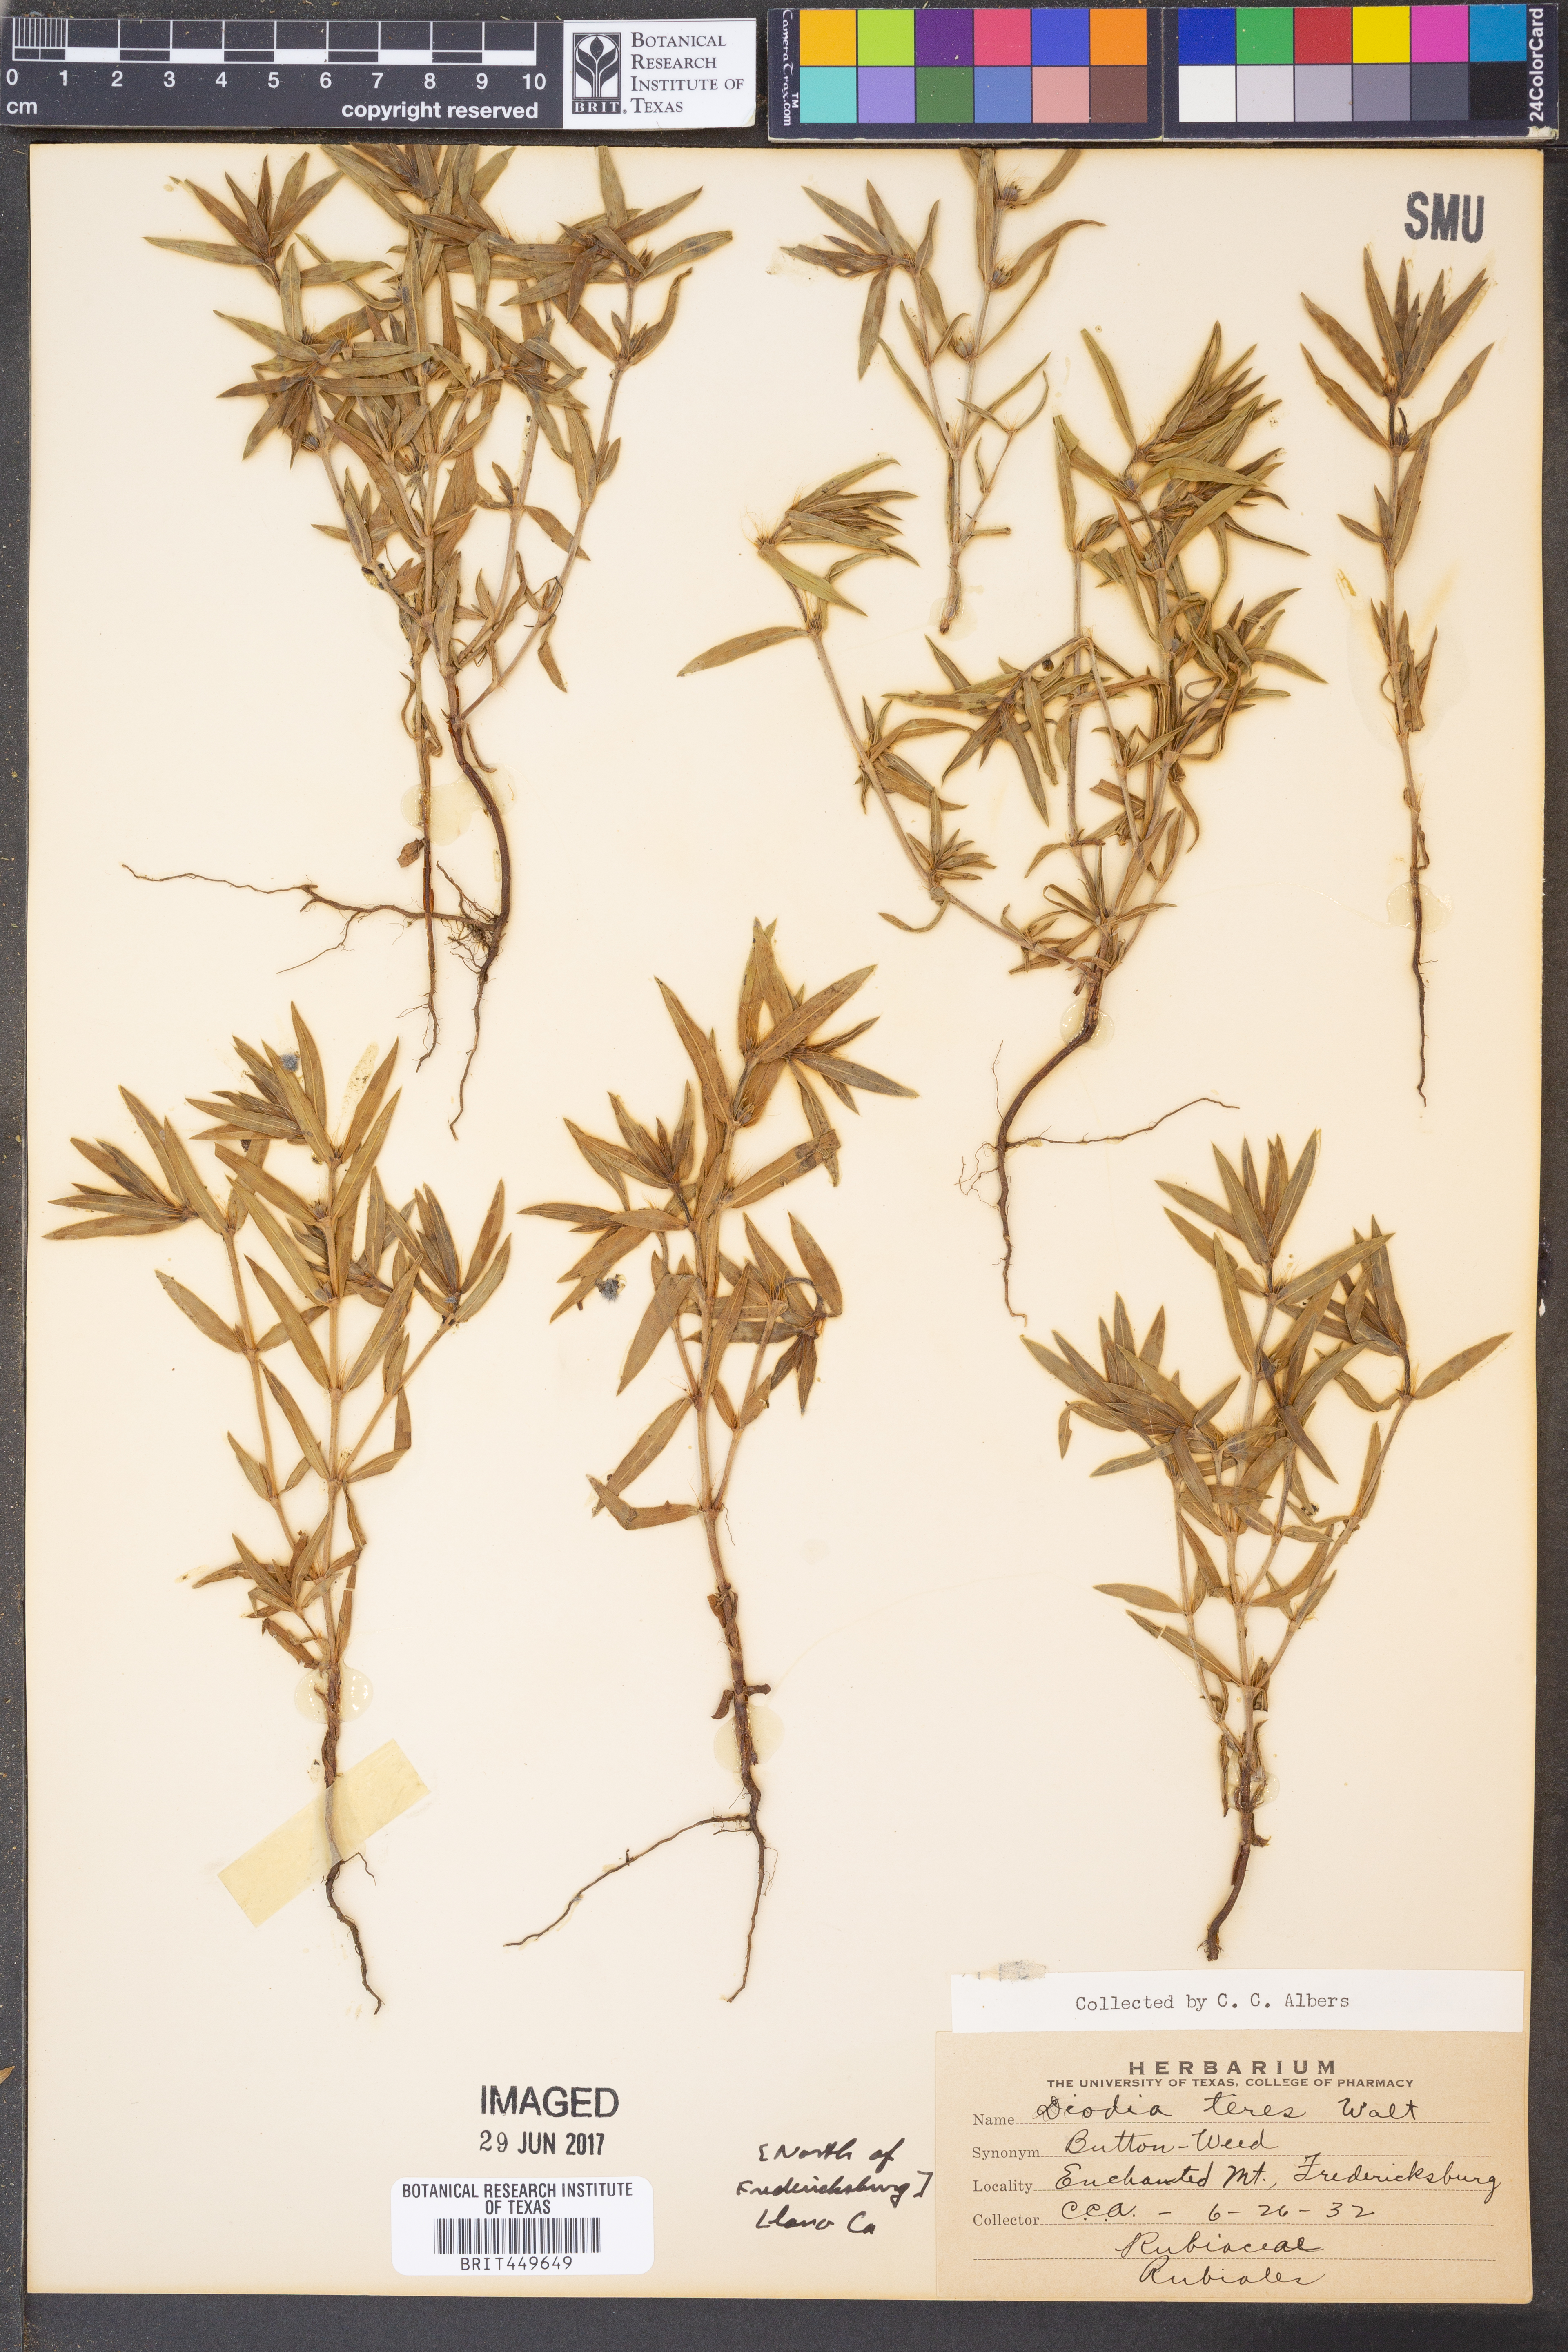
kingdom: Plantae
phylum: Tracheophyta
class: Magnoliopsida
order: Gentianales
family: Rubiaceae
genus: Hexasepalum
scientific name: Hexasepalum teres
